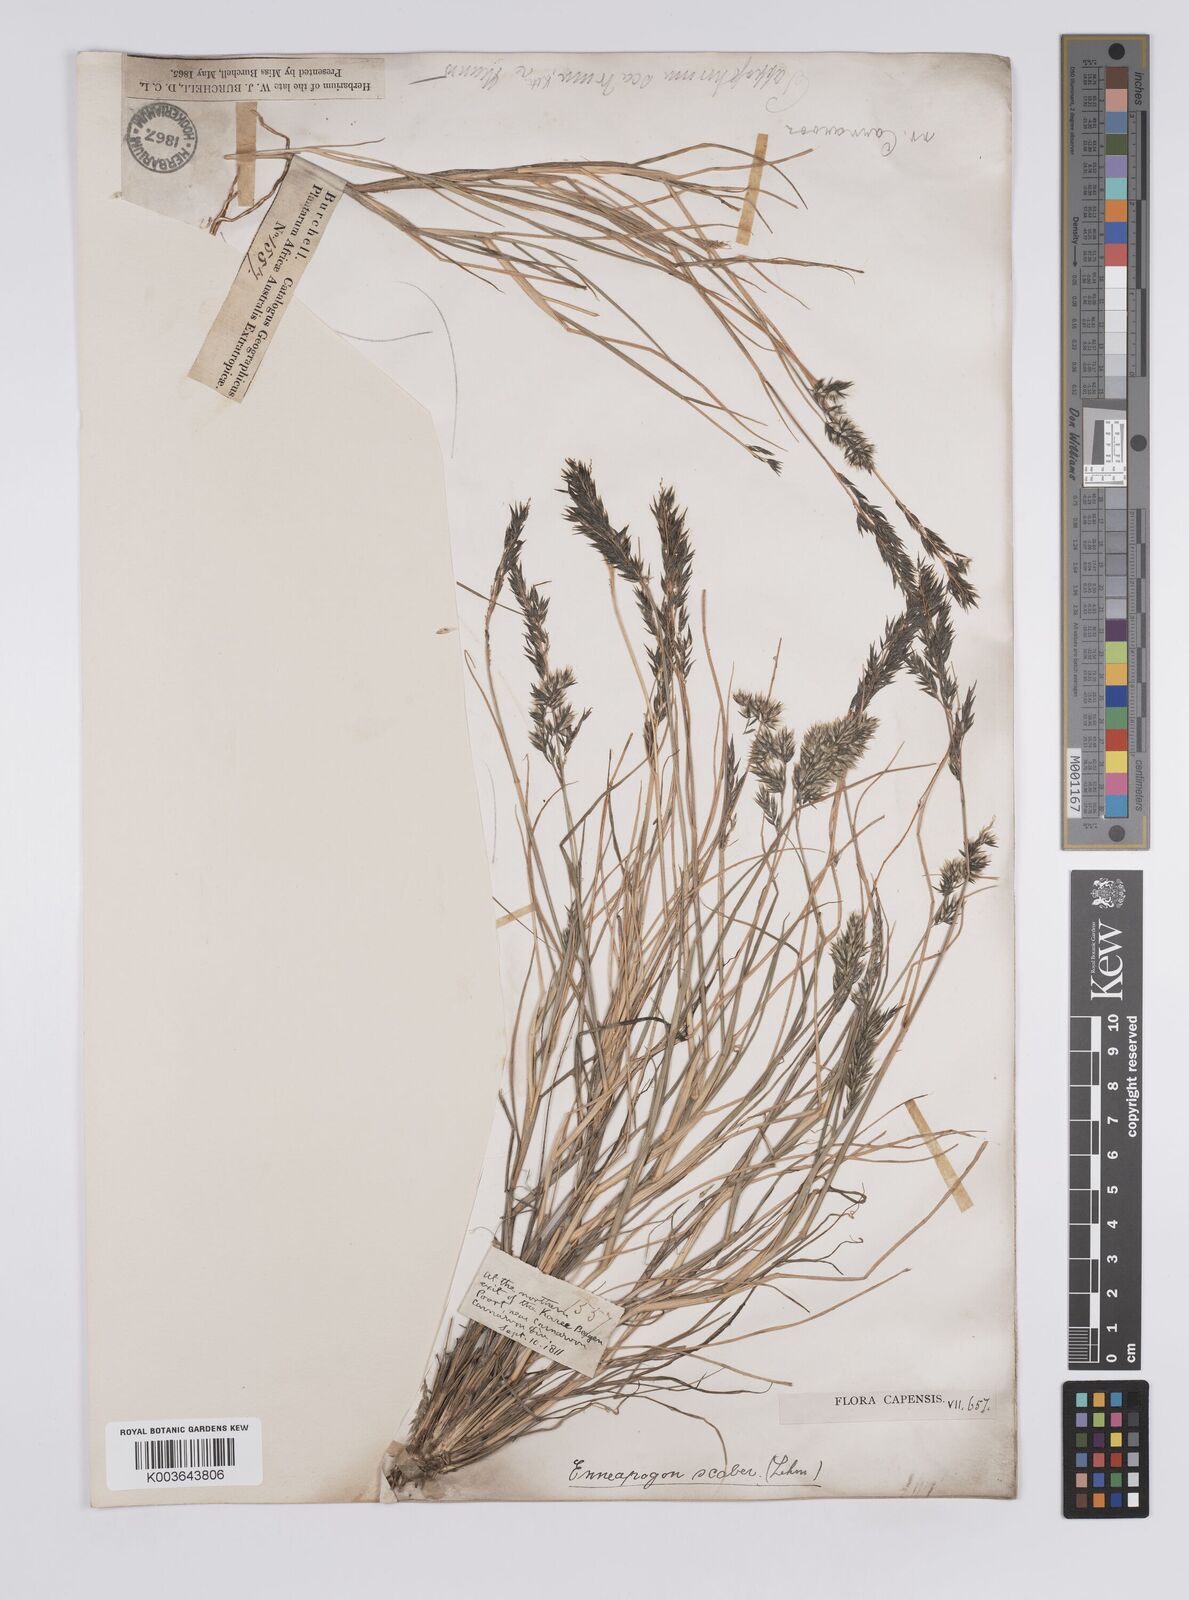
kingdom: Plantae
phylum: Tracheophyta
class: Liliopsida
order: Poales
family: Poaceae
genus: Enneapogon
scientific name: Enneapogon scaber
